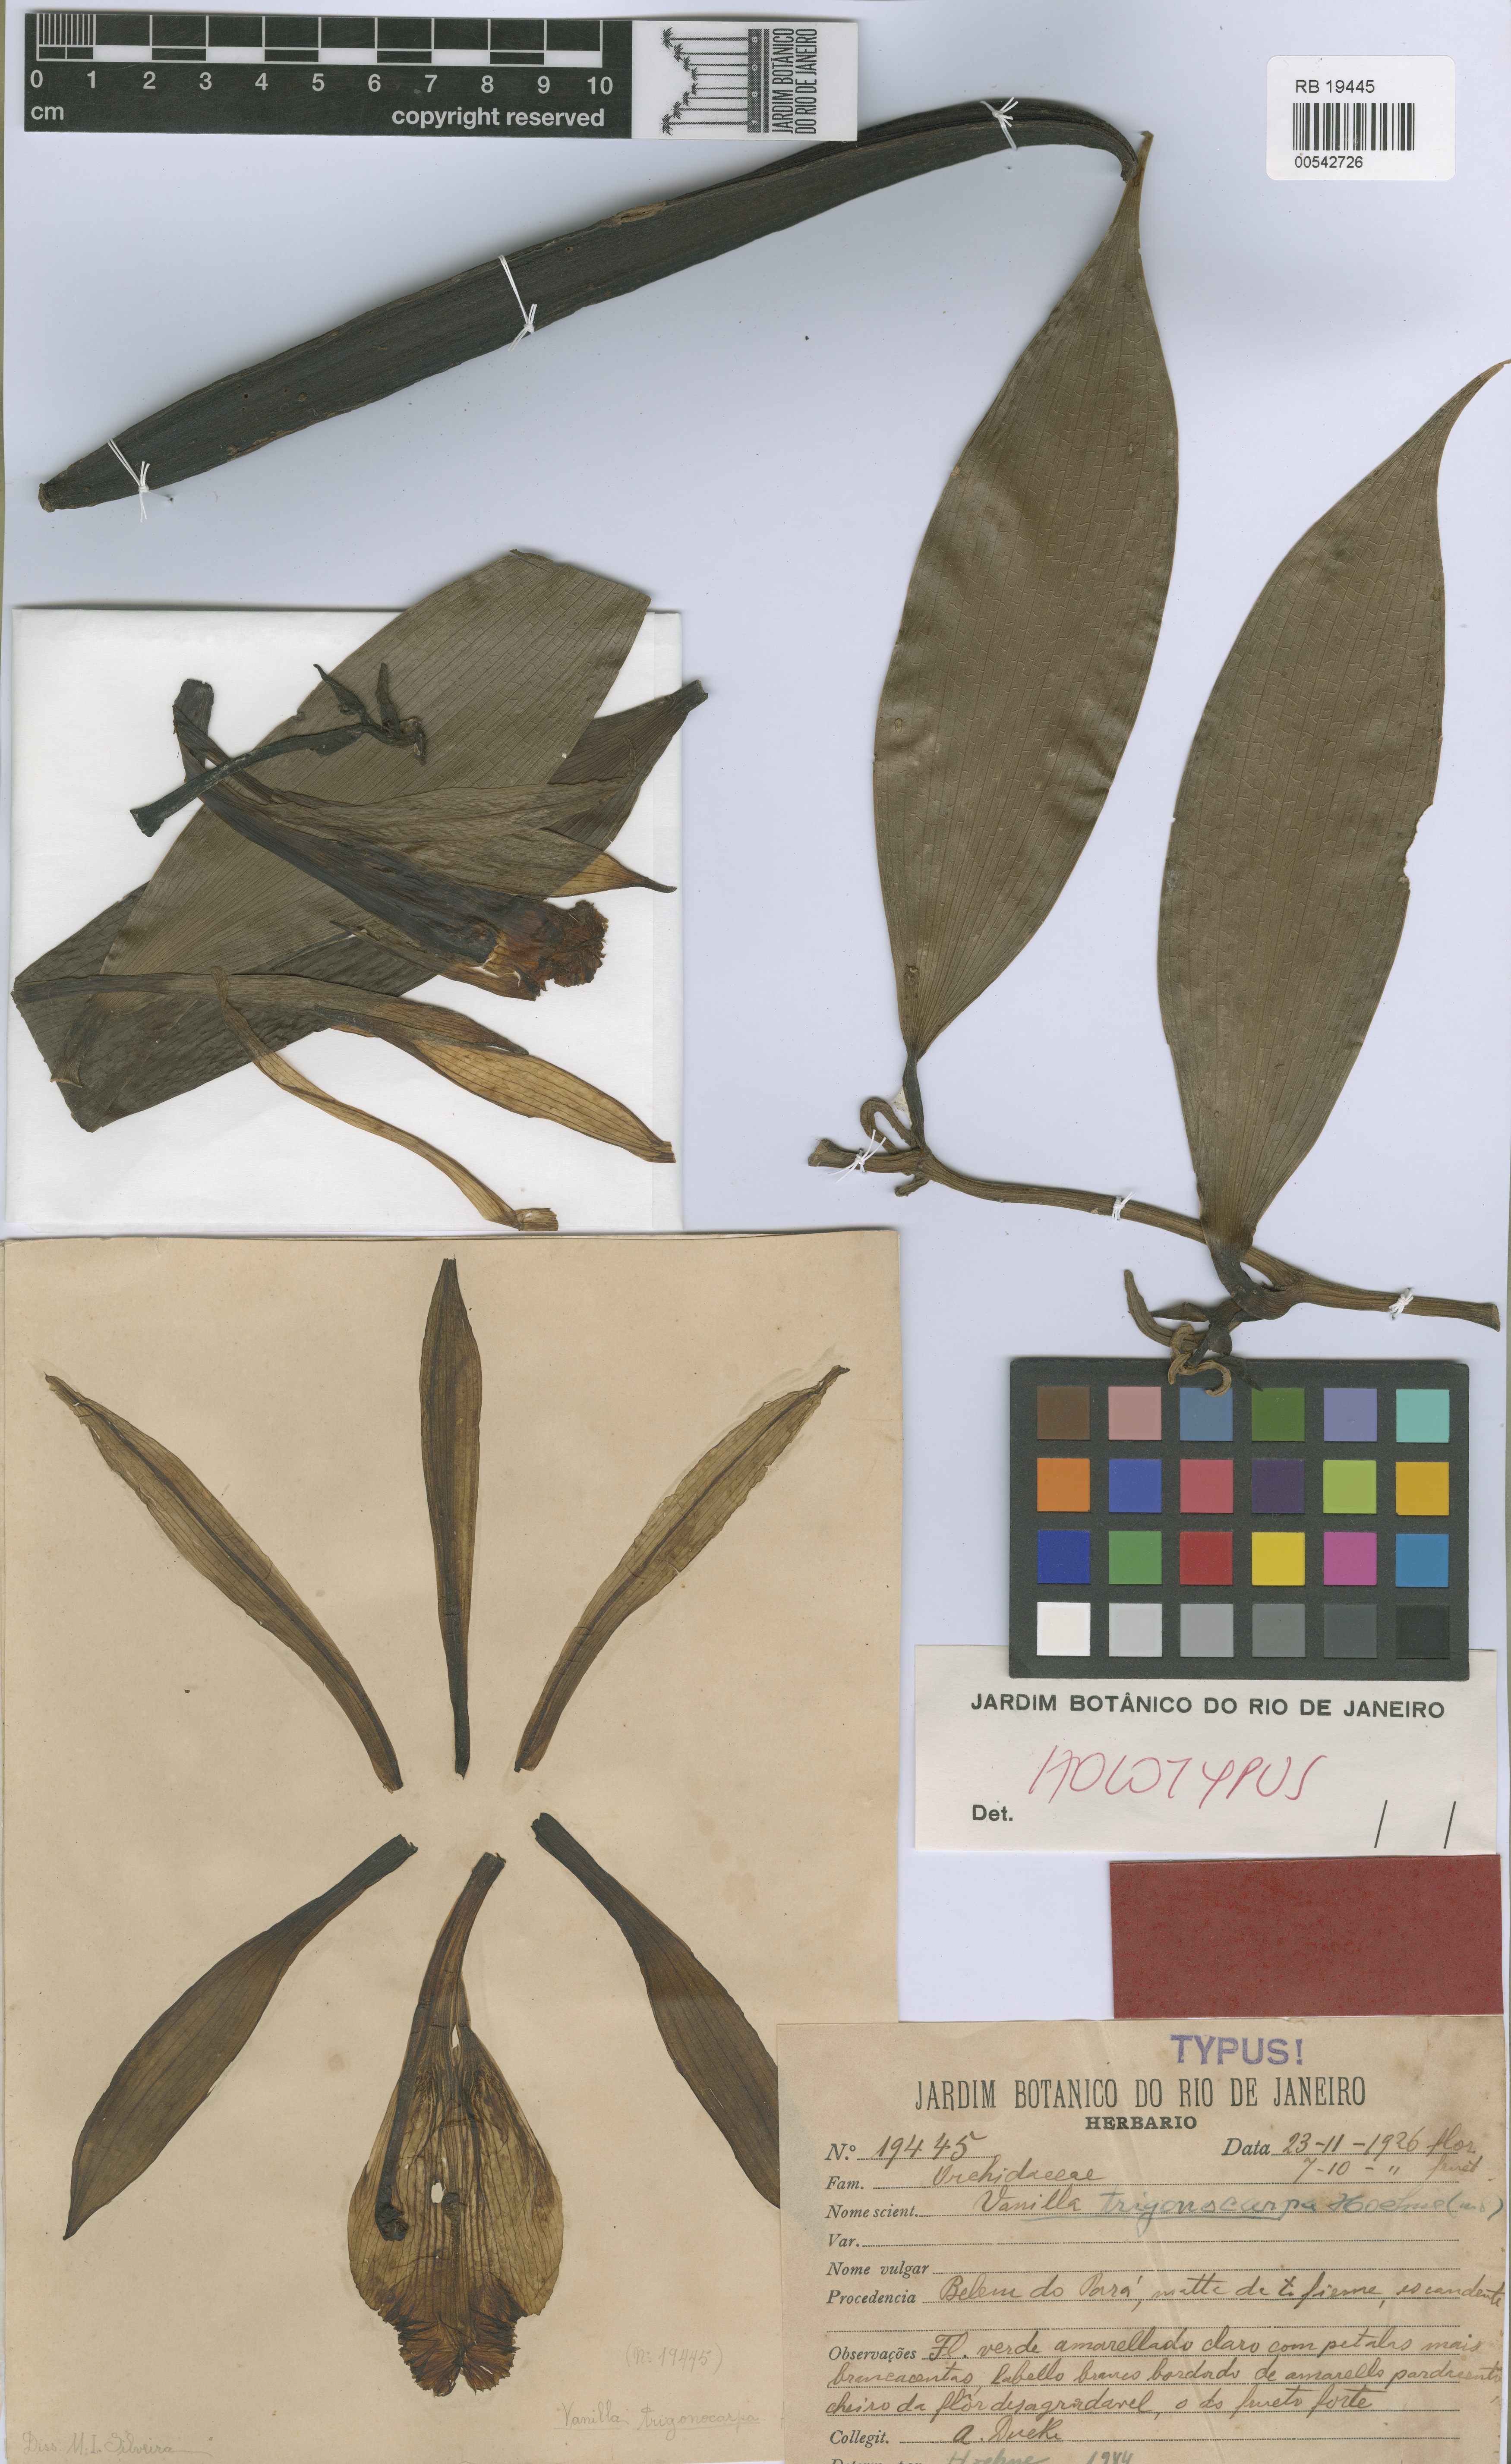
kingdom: Plantae
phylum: Tracheophyta
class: Liliopsida
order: Asparagales
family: Orchidaceae
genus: Vanilla
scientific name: Vanilla trigonocarpa
